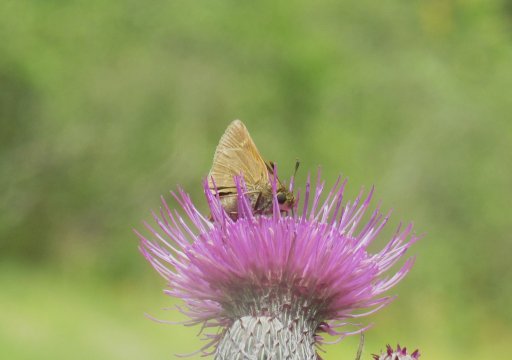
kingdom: Animalia
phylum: Arthropoda
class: Insecta
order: Lepidoptera
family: Hesperiidae
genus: Euphyes
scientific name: Euphyes vestris
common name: Dun Skipper
